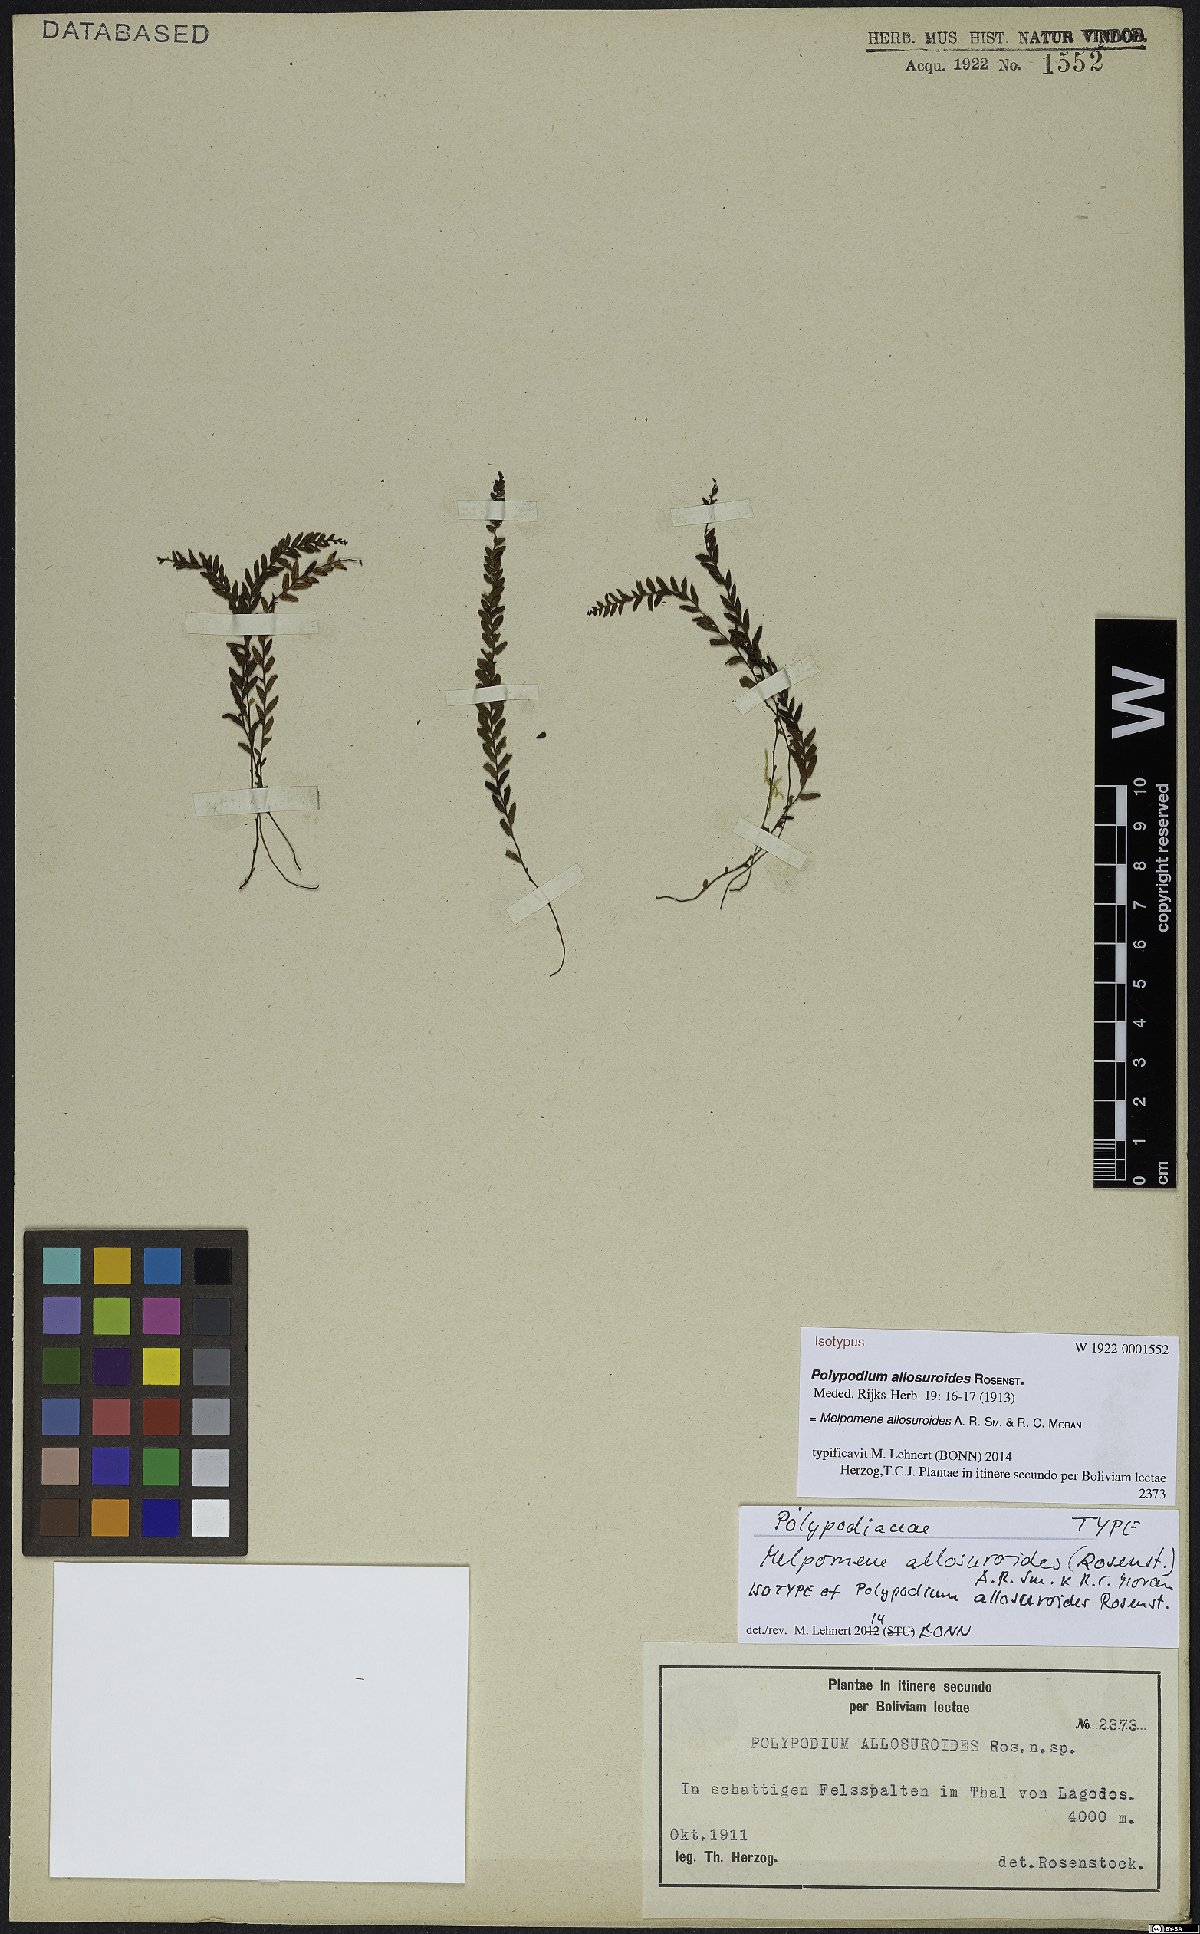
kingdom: Plantae
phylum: Tracheophyta
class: Polypodiopsida
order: Polypodiales
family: Polypodiaceae
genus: Melpomene
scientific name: Melpomene allosuroides
